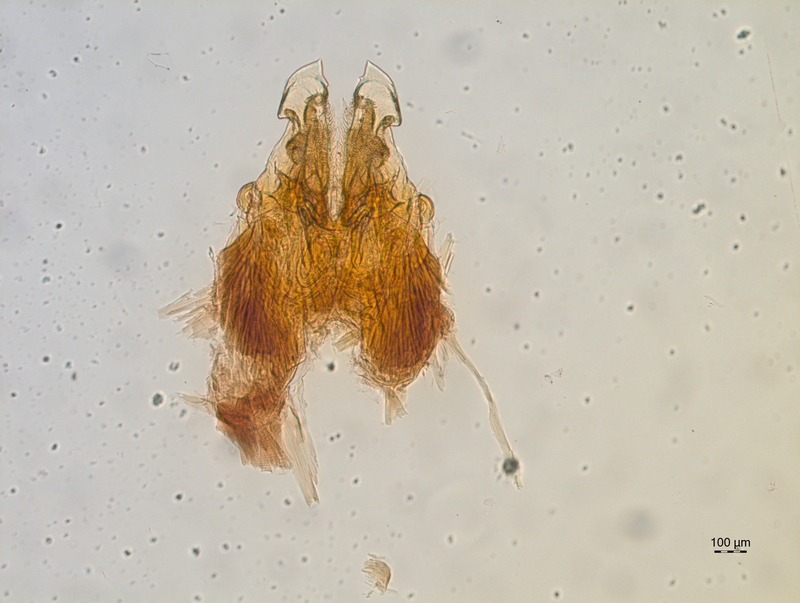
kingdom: Animalia
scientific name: Animalia
